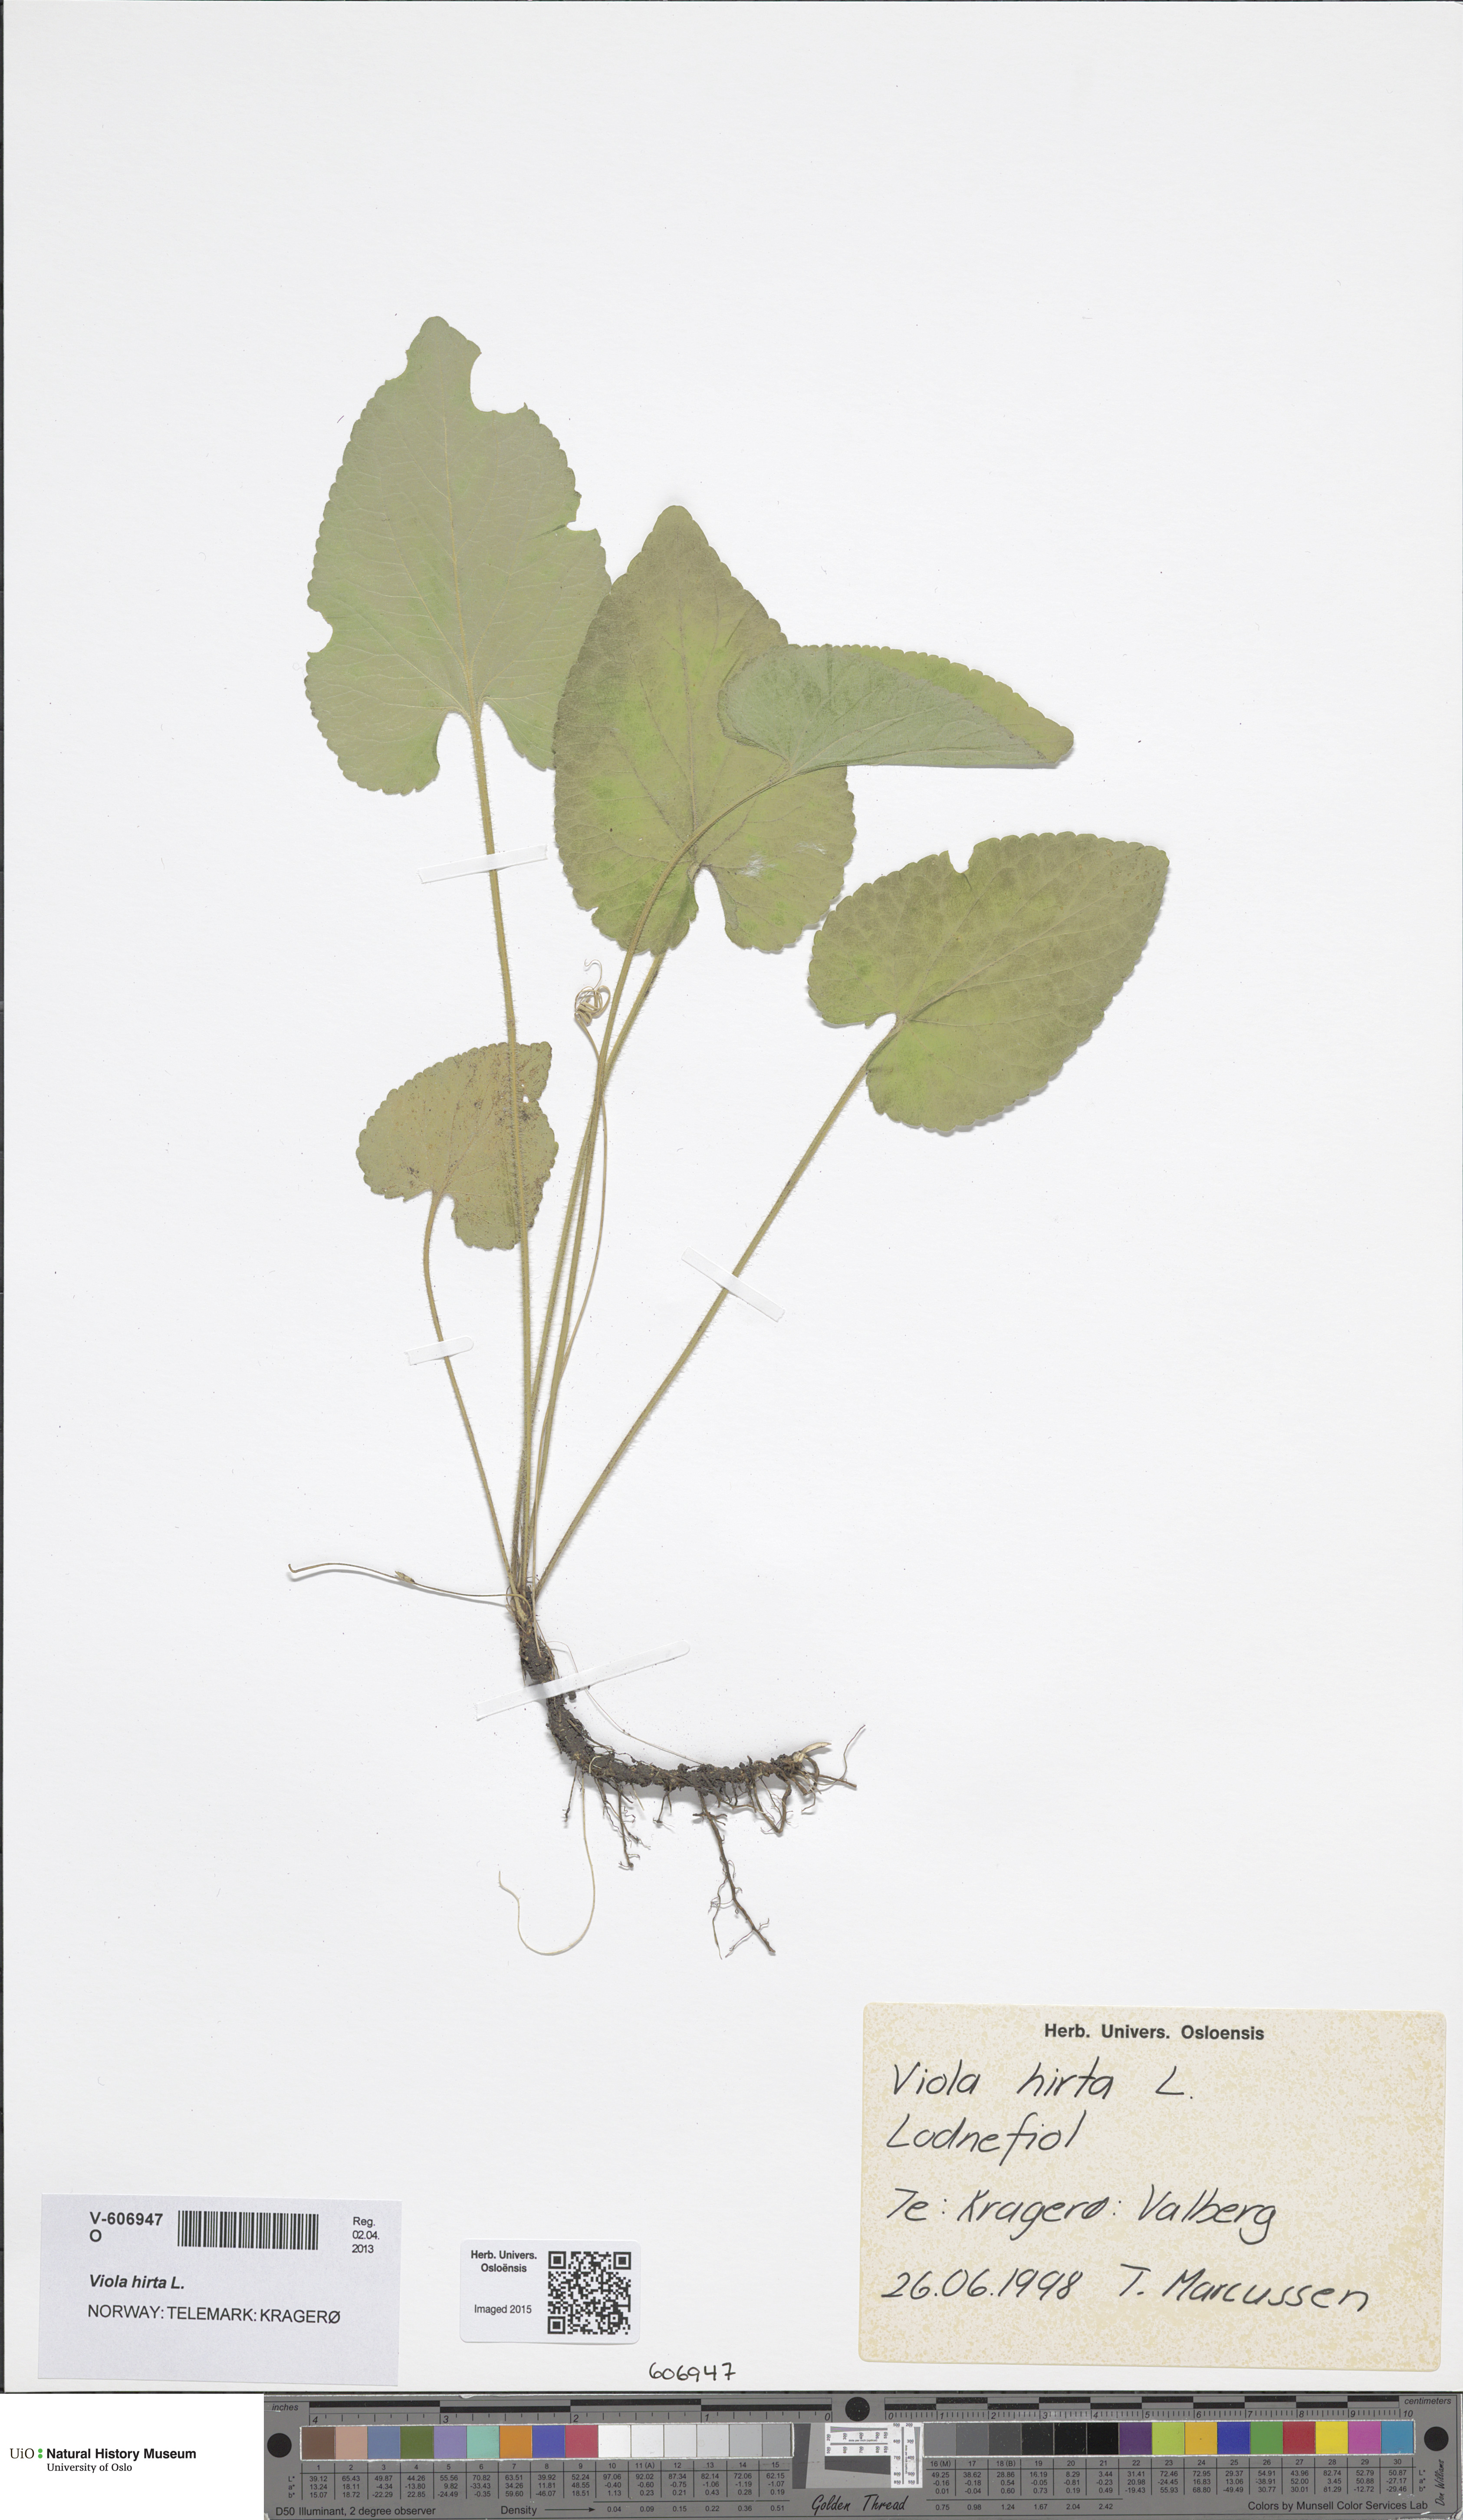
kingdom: Plantae
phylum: Tracheophyta
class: Magnoliopsida
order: Malpighiales
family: Violaceae
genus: Viola
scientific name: Viola hirta
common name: Hairy violet
